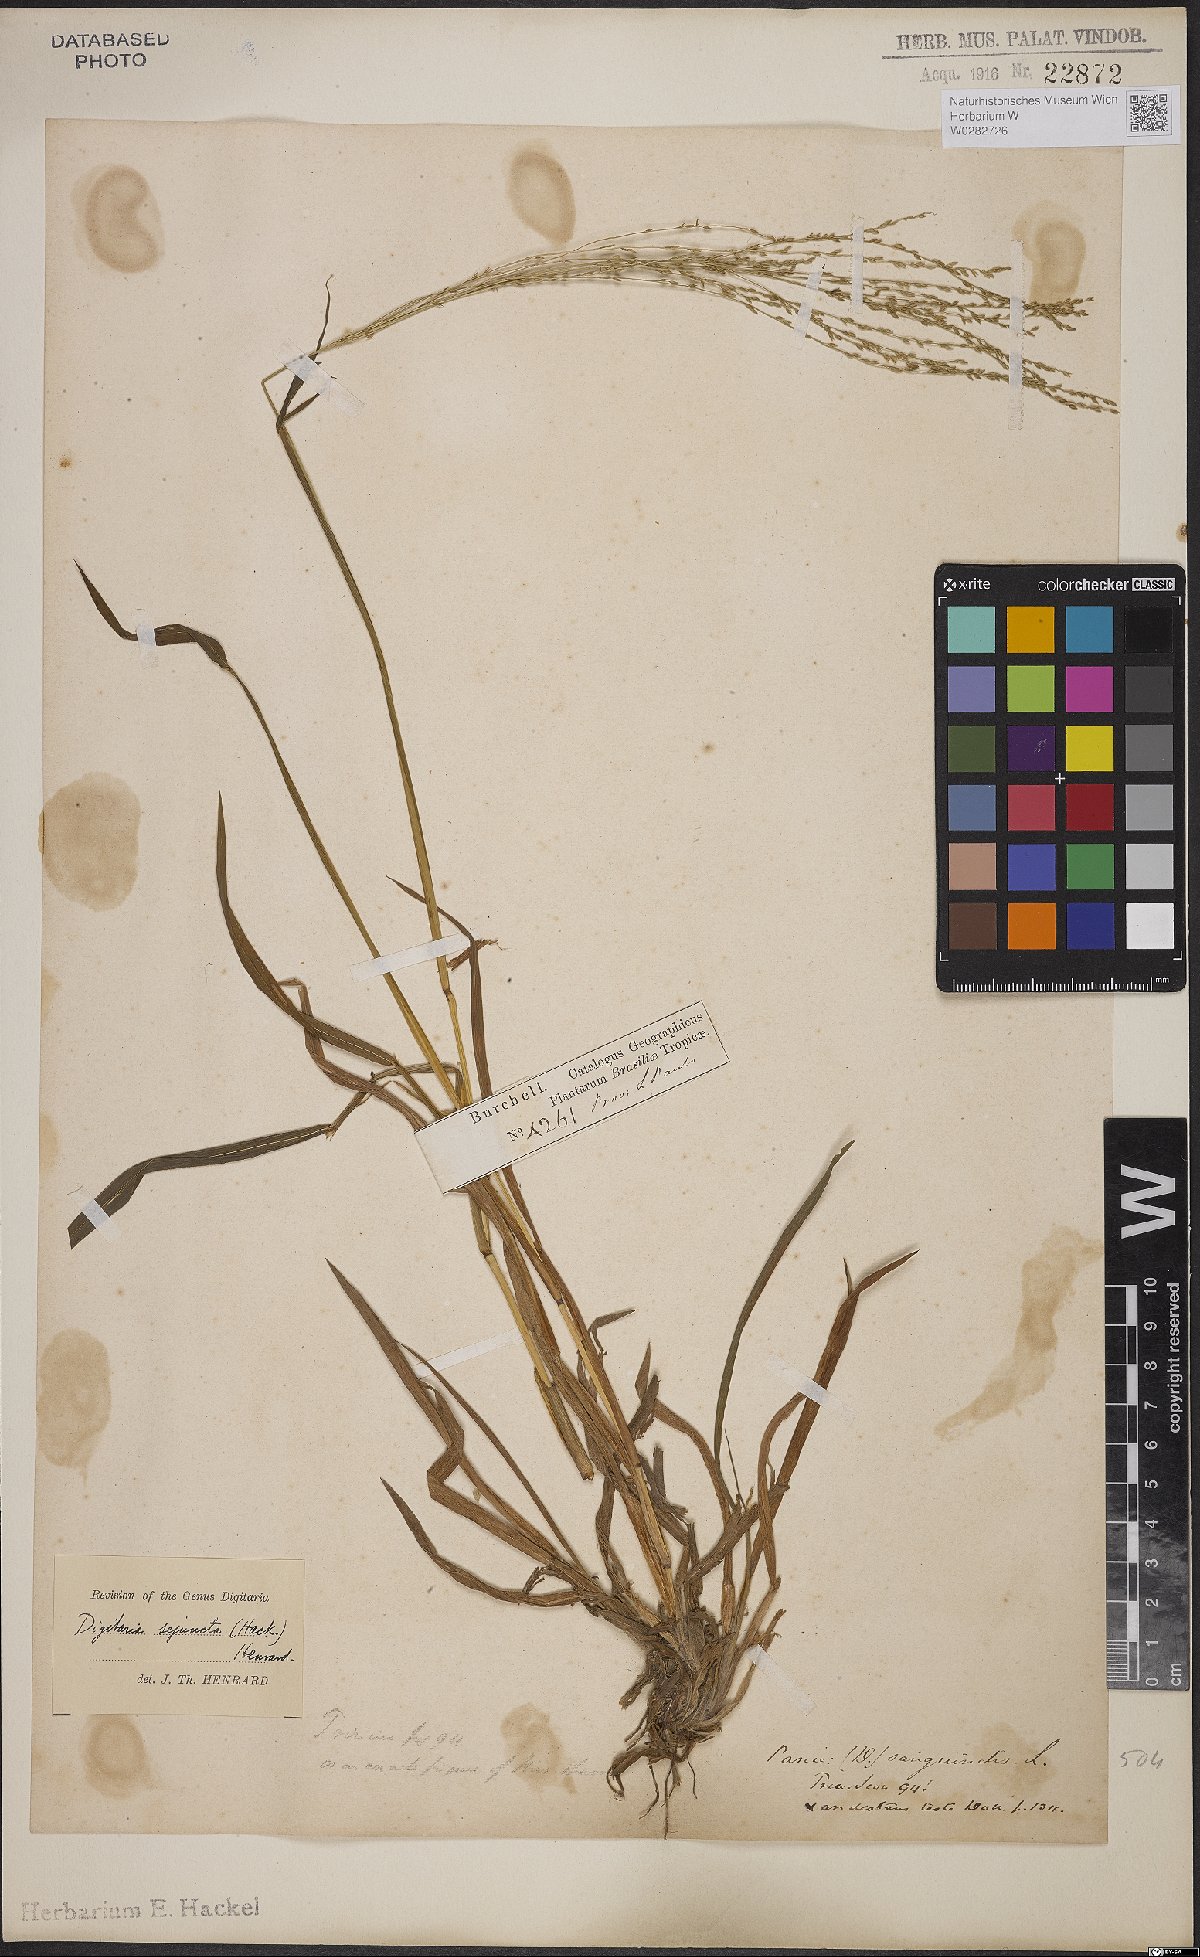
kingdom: Plantae
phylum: Tracheophyta
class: Liliopsida
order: Poales
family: Poaceae
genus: Digitaria
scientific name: Digitaria sejuncta
